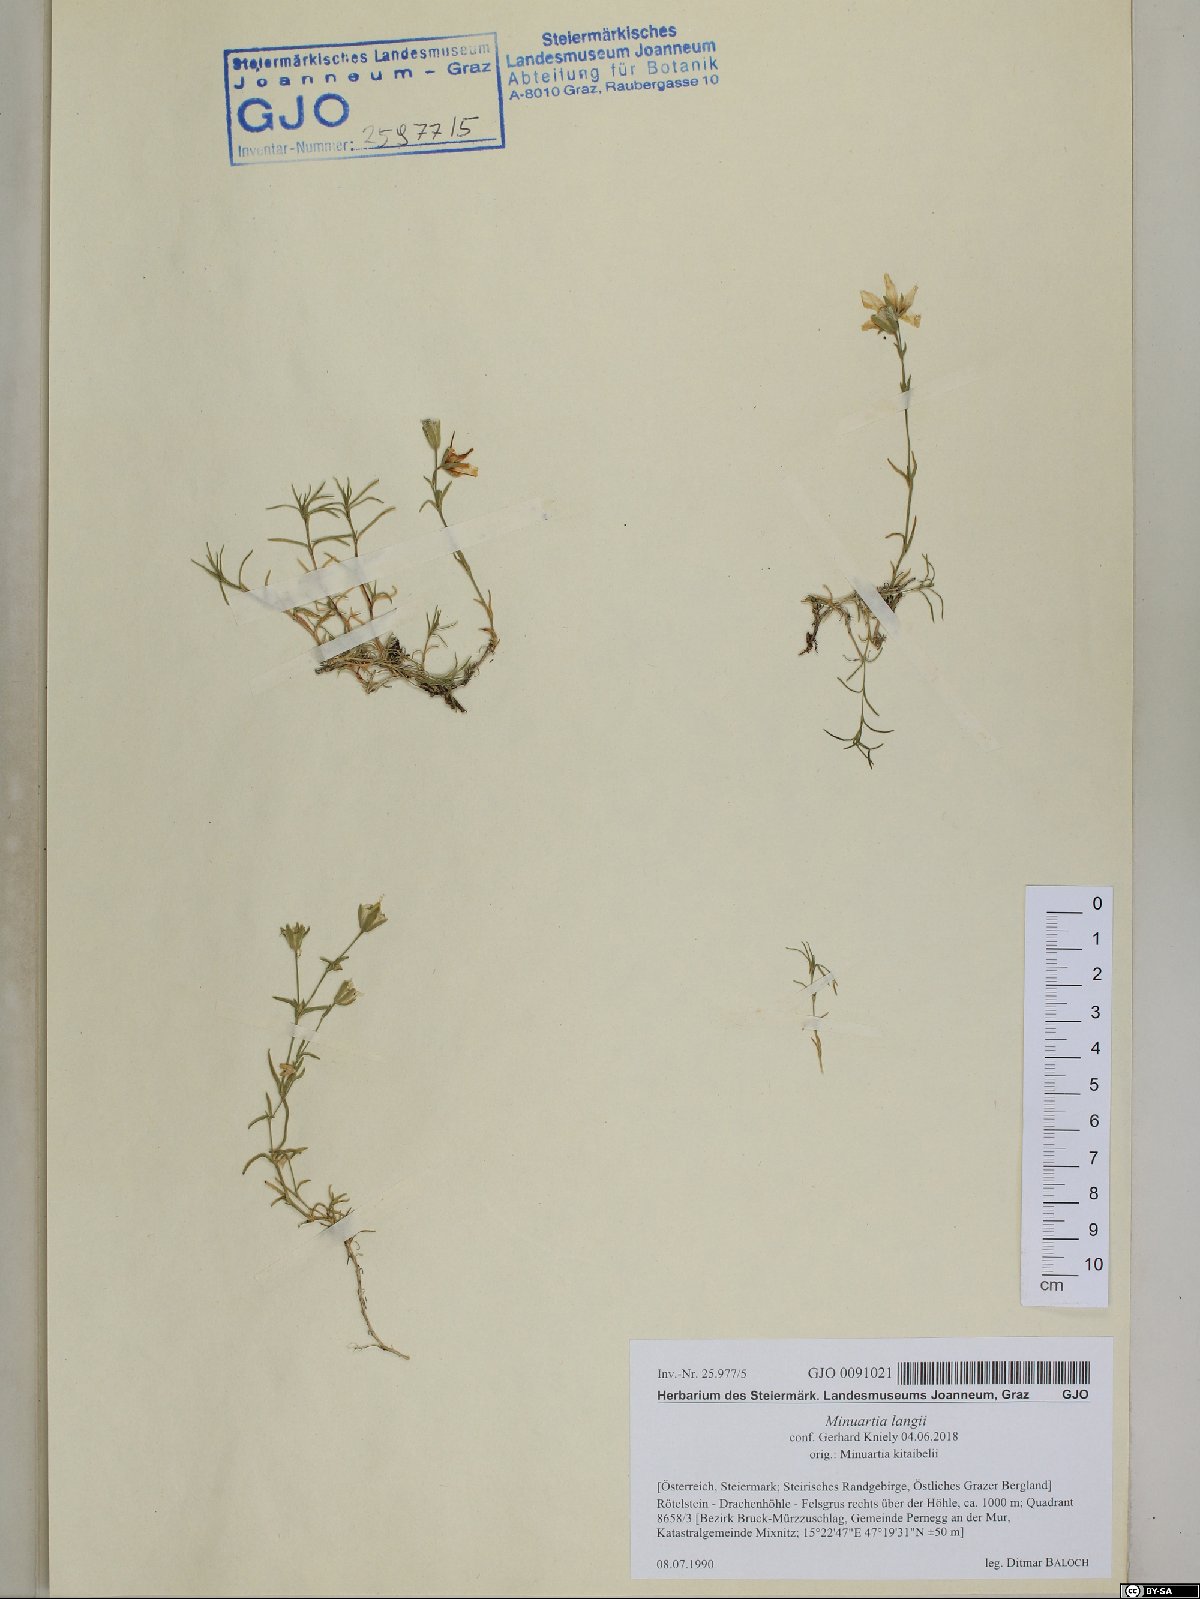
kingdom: Plantae
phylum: Tracheophyta
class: Magnoliopsida
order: Caryophyllales
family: Caryophyllaceae
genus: Cherleria
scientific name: Cherleria langii
